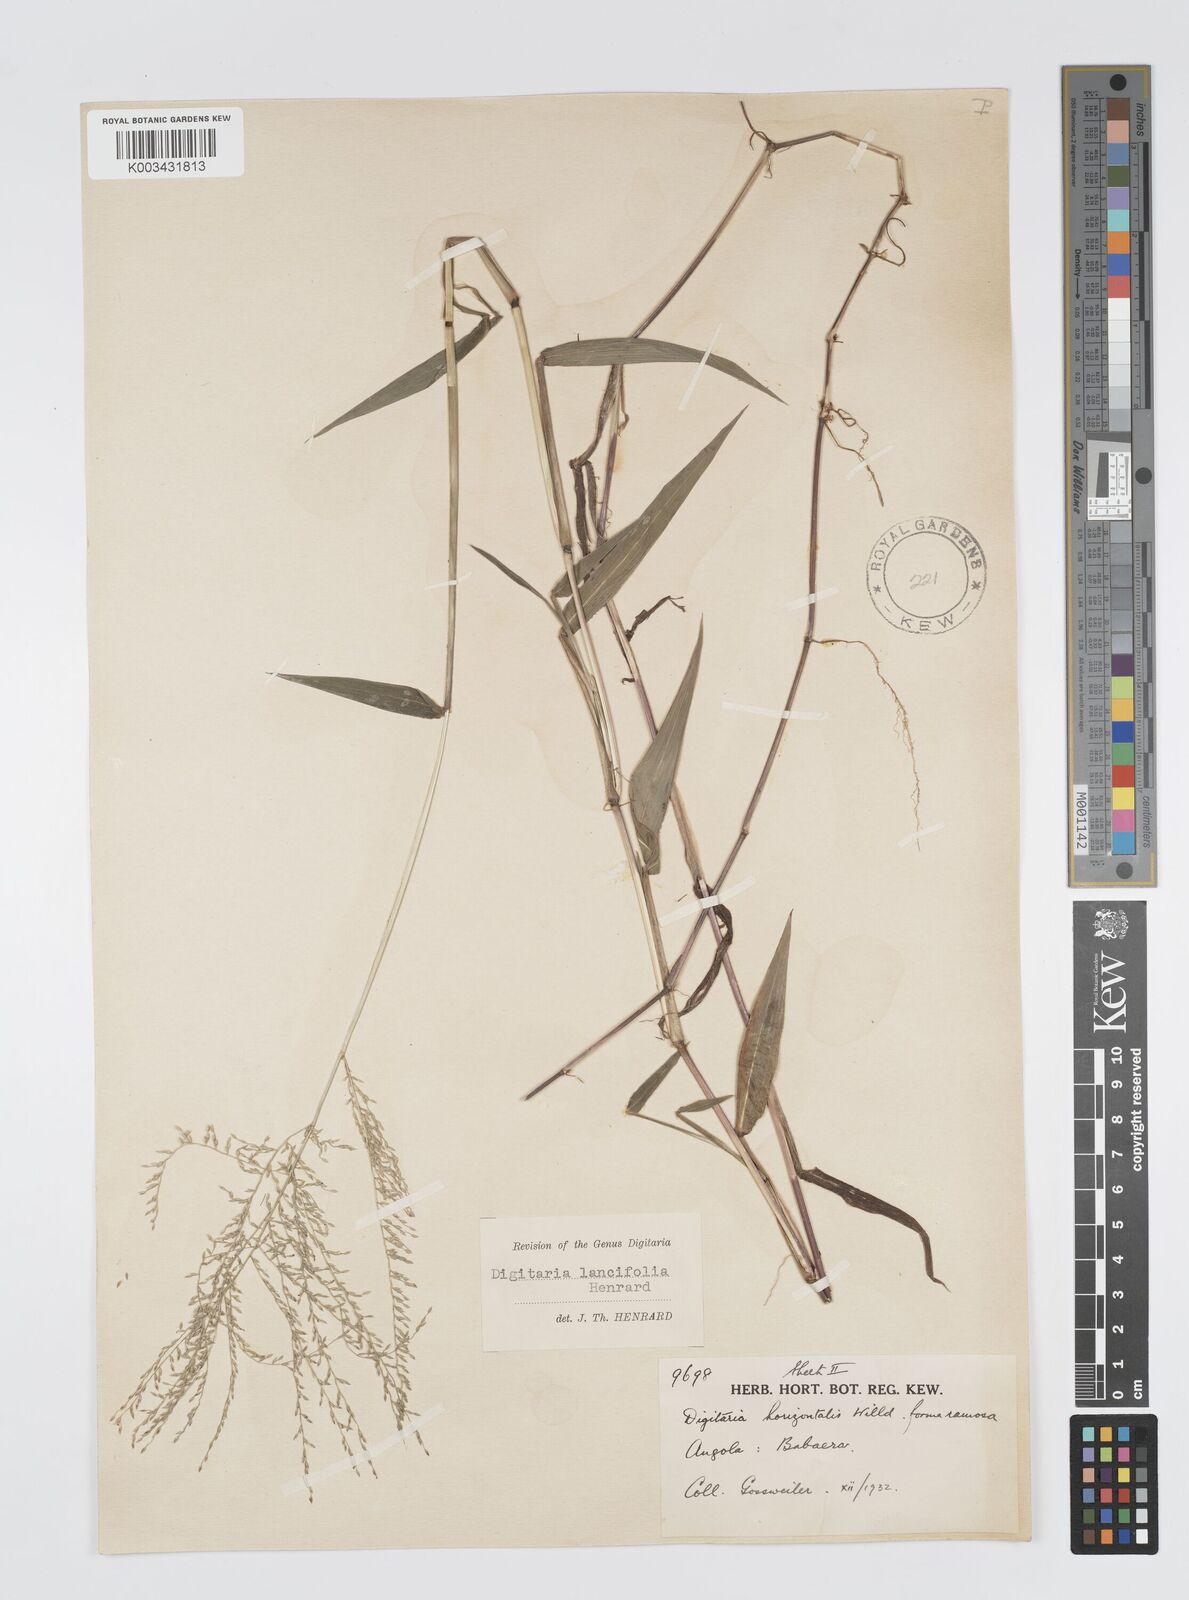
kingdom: Plantae
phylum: Tracheophyta
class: Liliopsida
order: Poales
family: Poaceae
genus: Digitaria
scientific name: Digitaria pearsonii
